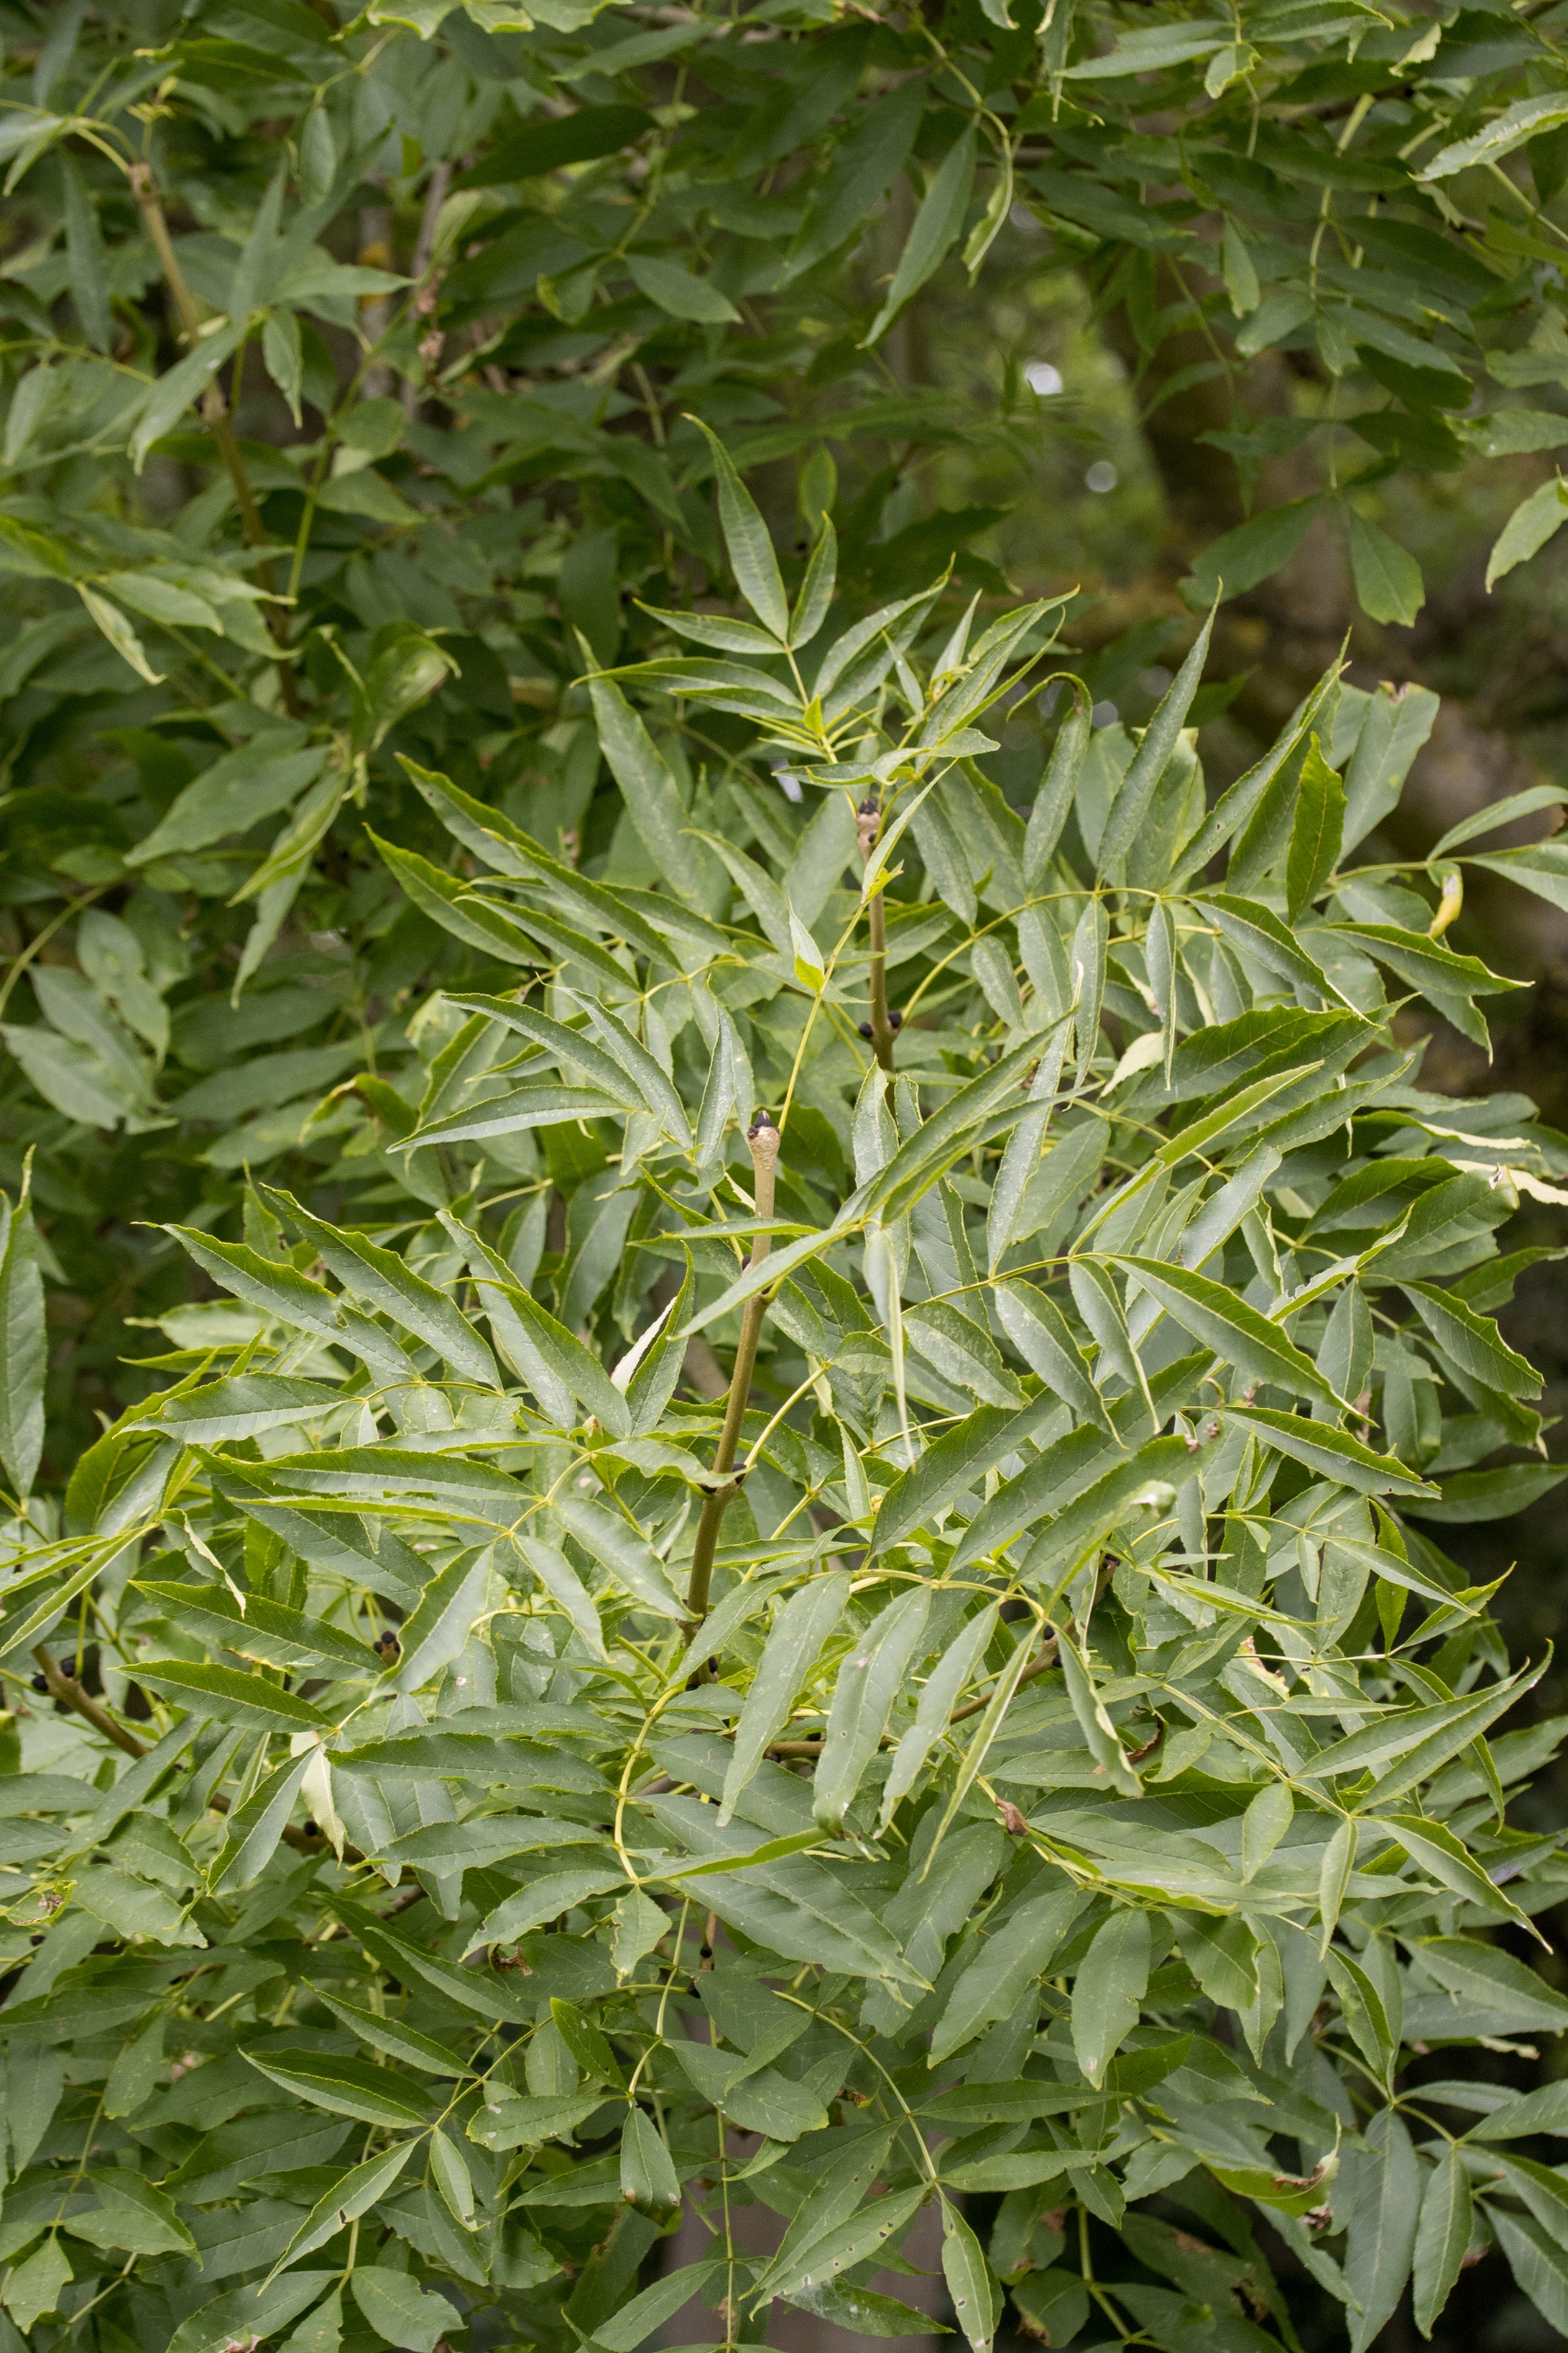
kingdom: Plantae
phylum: Tracheophyta
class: Magnoliopsida
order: Lamiales
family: Oleaceae
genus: Fraxinus
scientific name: Fraxinus excelsior
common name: Ask
